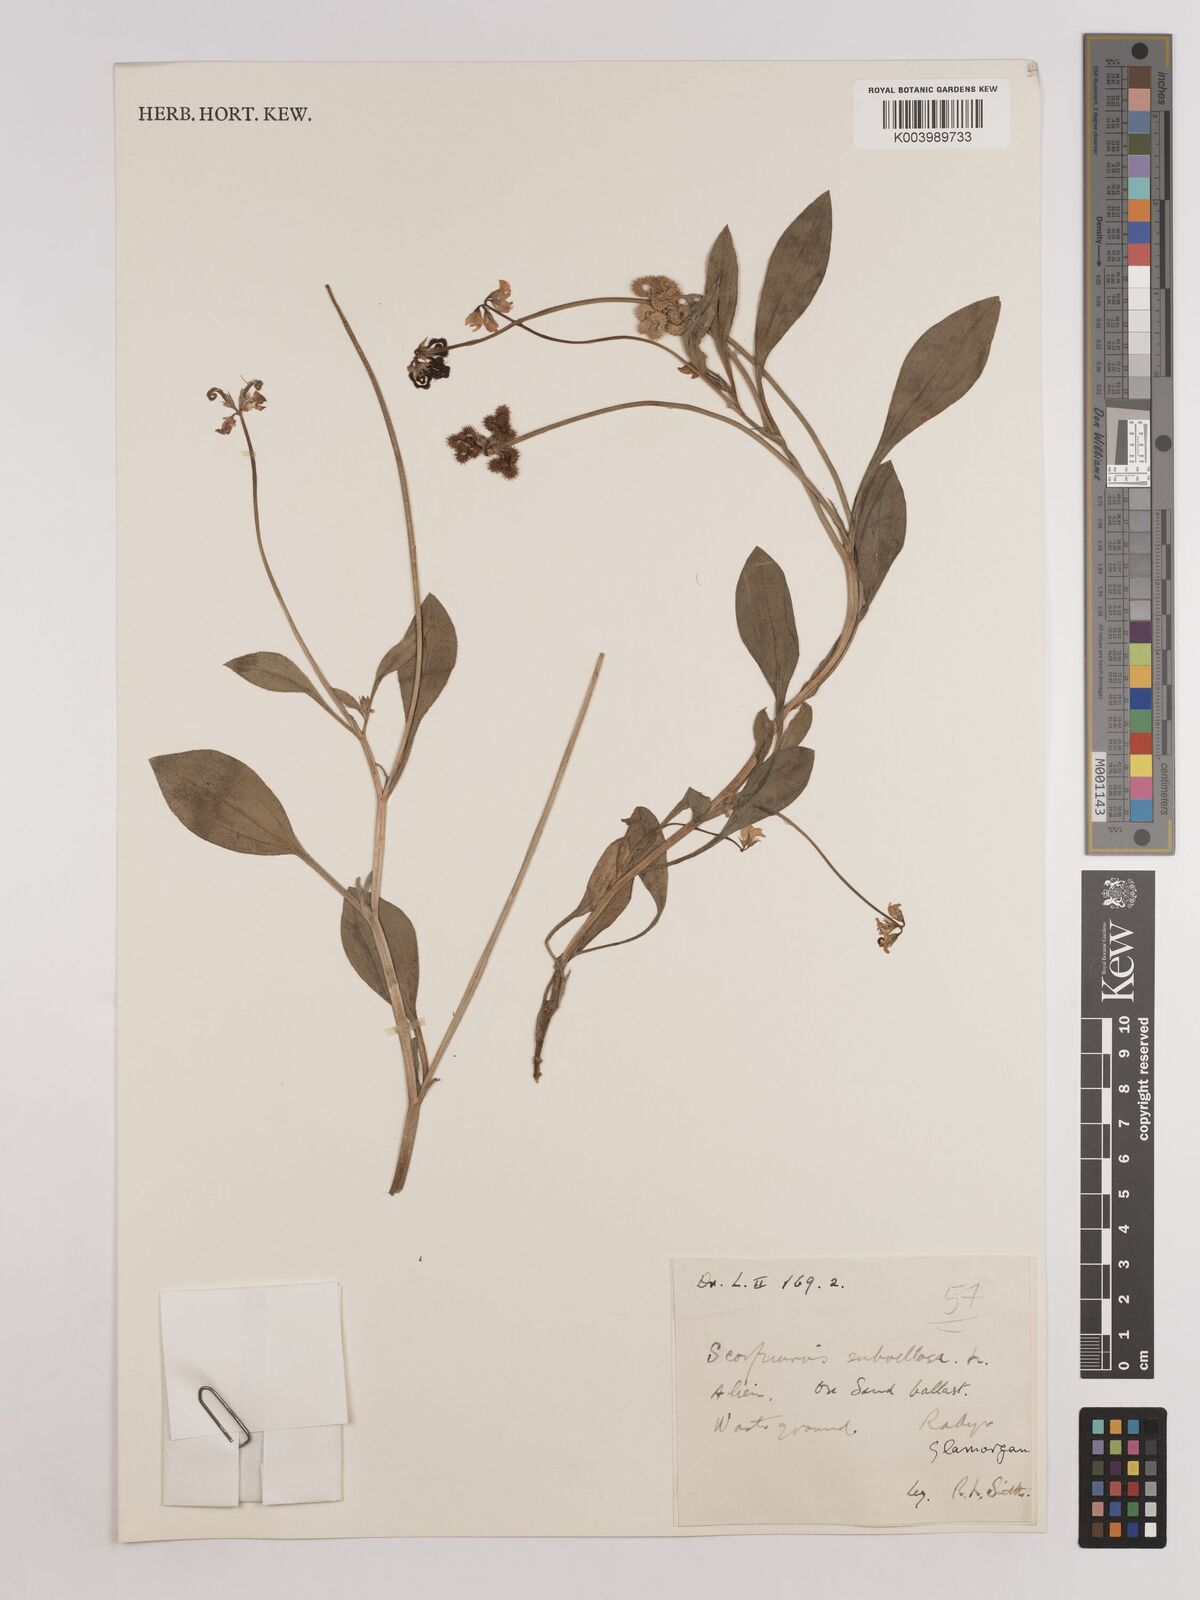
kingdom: Plantae
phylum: Tracheophyta
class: Magnoliopsida
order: Fabales
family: Fabaceae
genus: Scorpiurus
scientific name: Scorpiurus muricatus
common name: Caterpillar-plant
